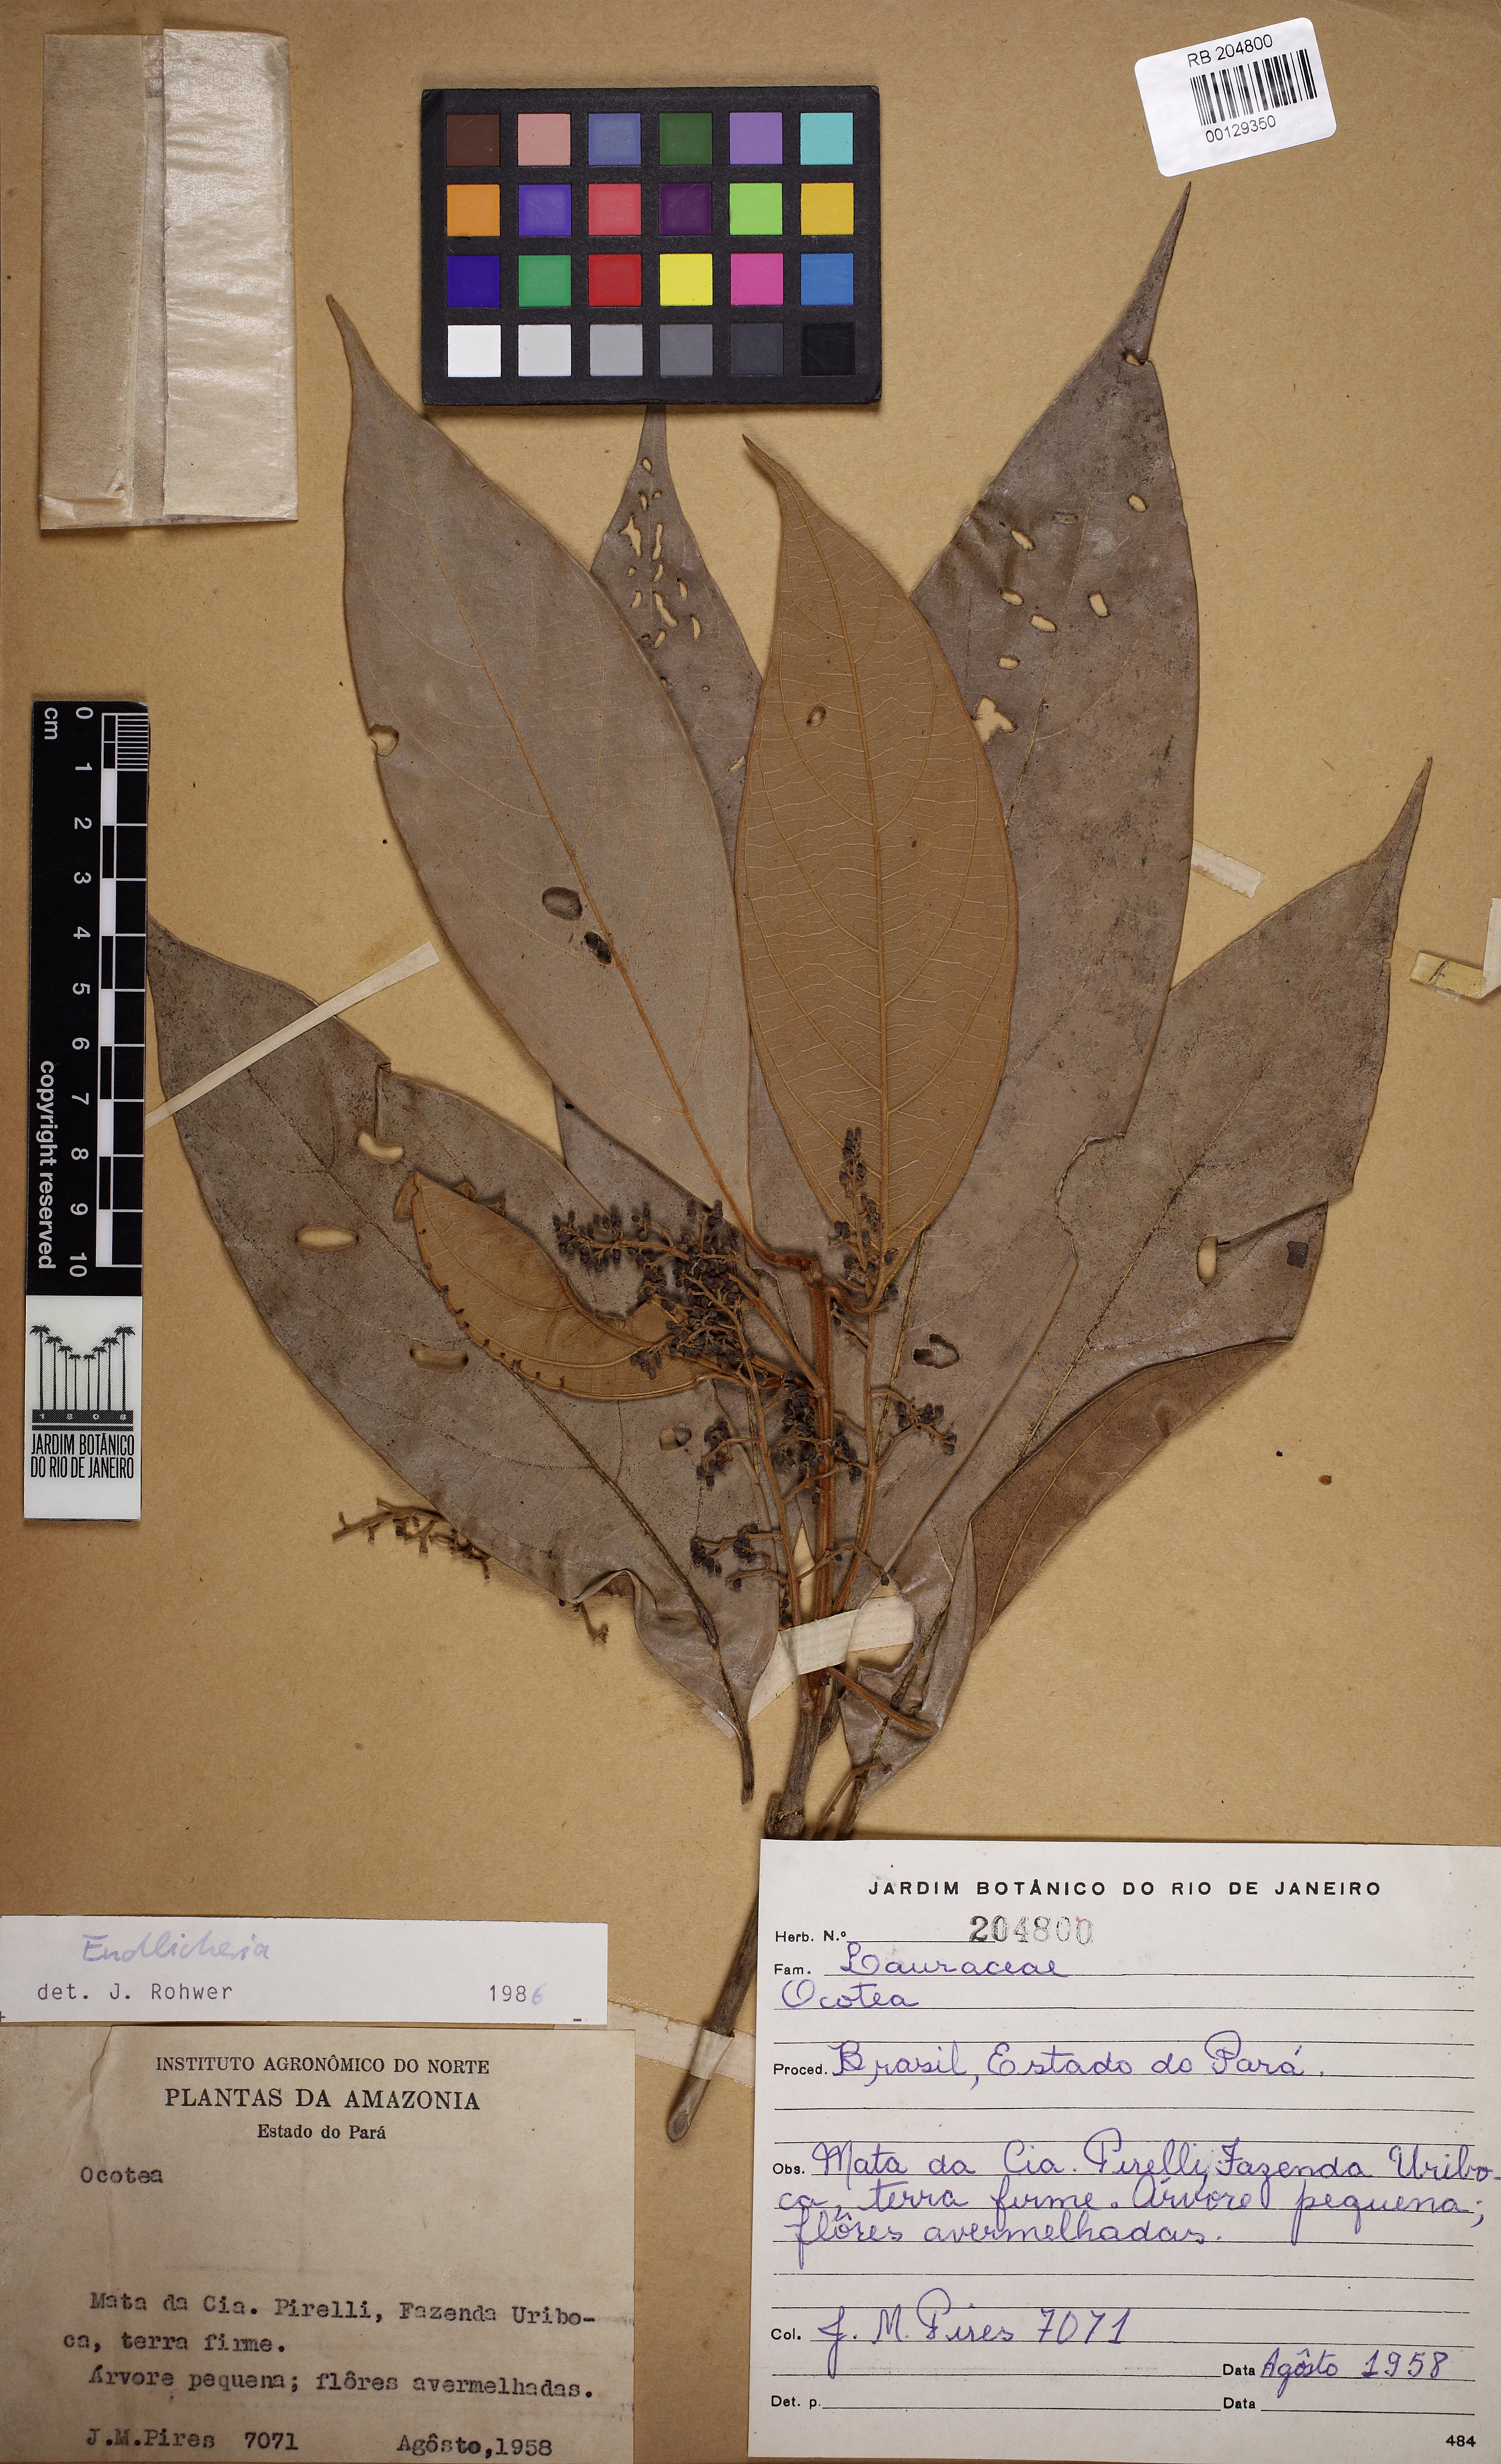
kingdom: Plantae
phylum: Tracheophyta
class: Magnoliopsida
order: Laurales
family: Lauraceae
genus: Endlicheria
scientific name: Endlicheria
